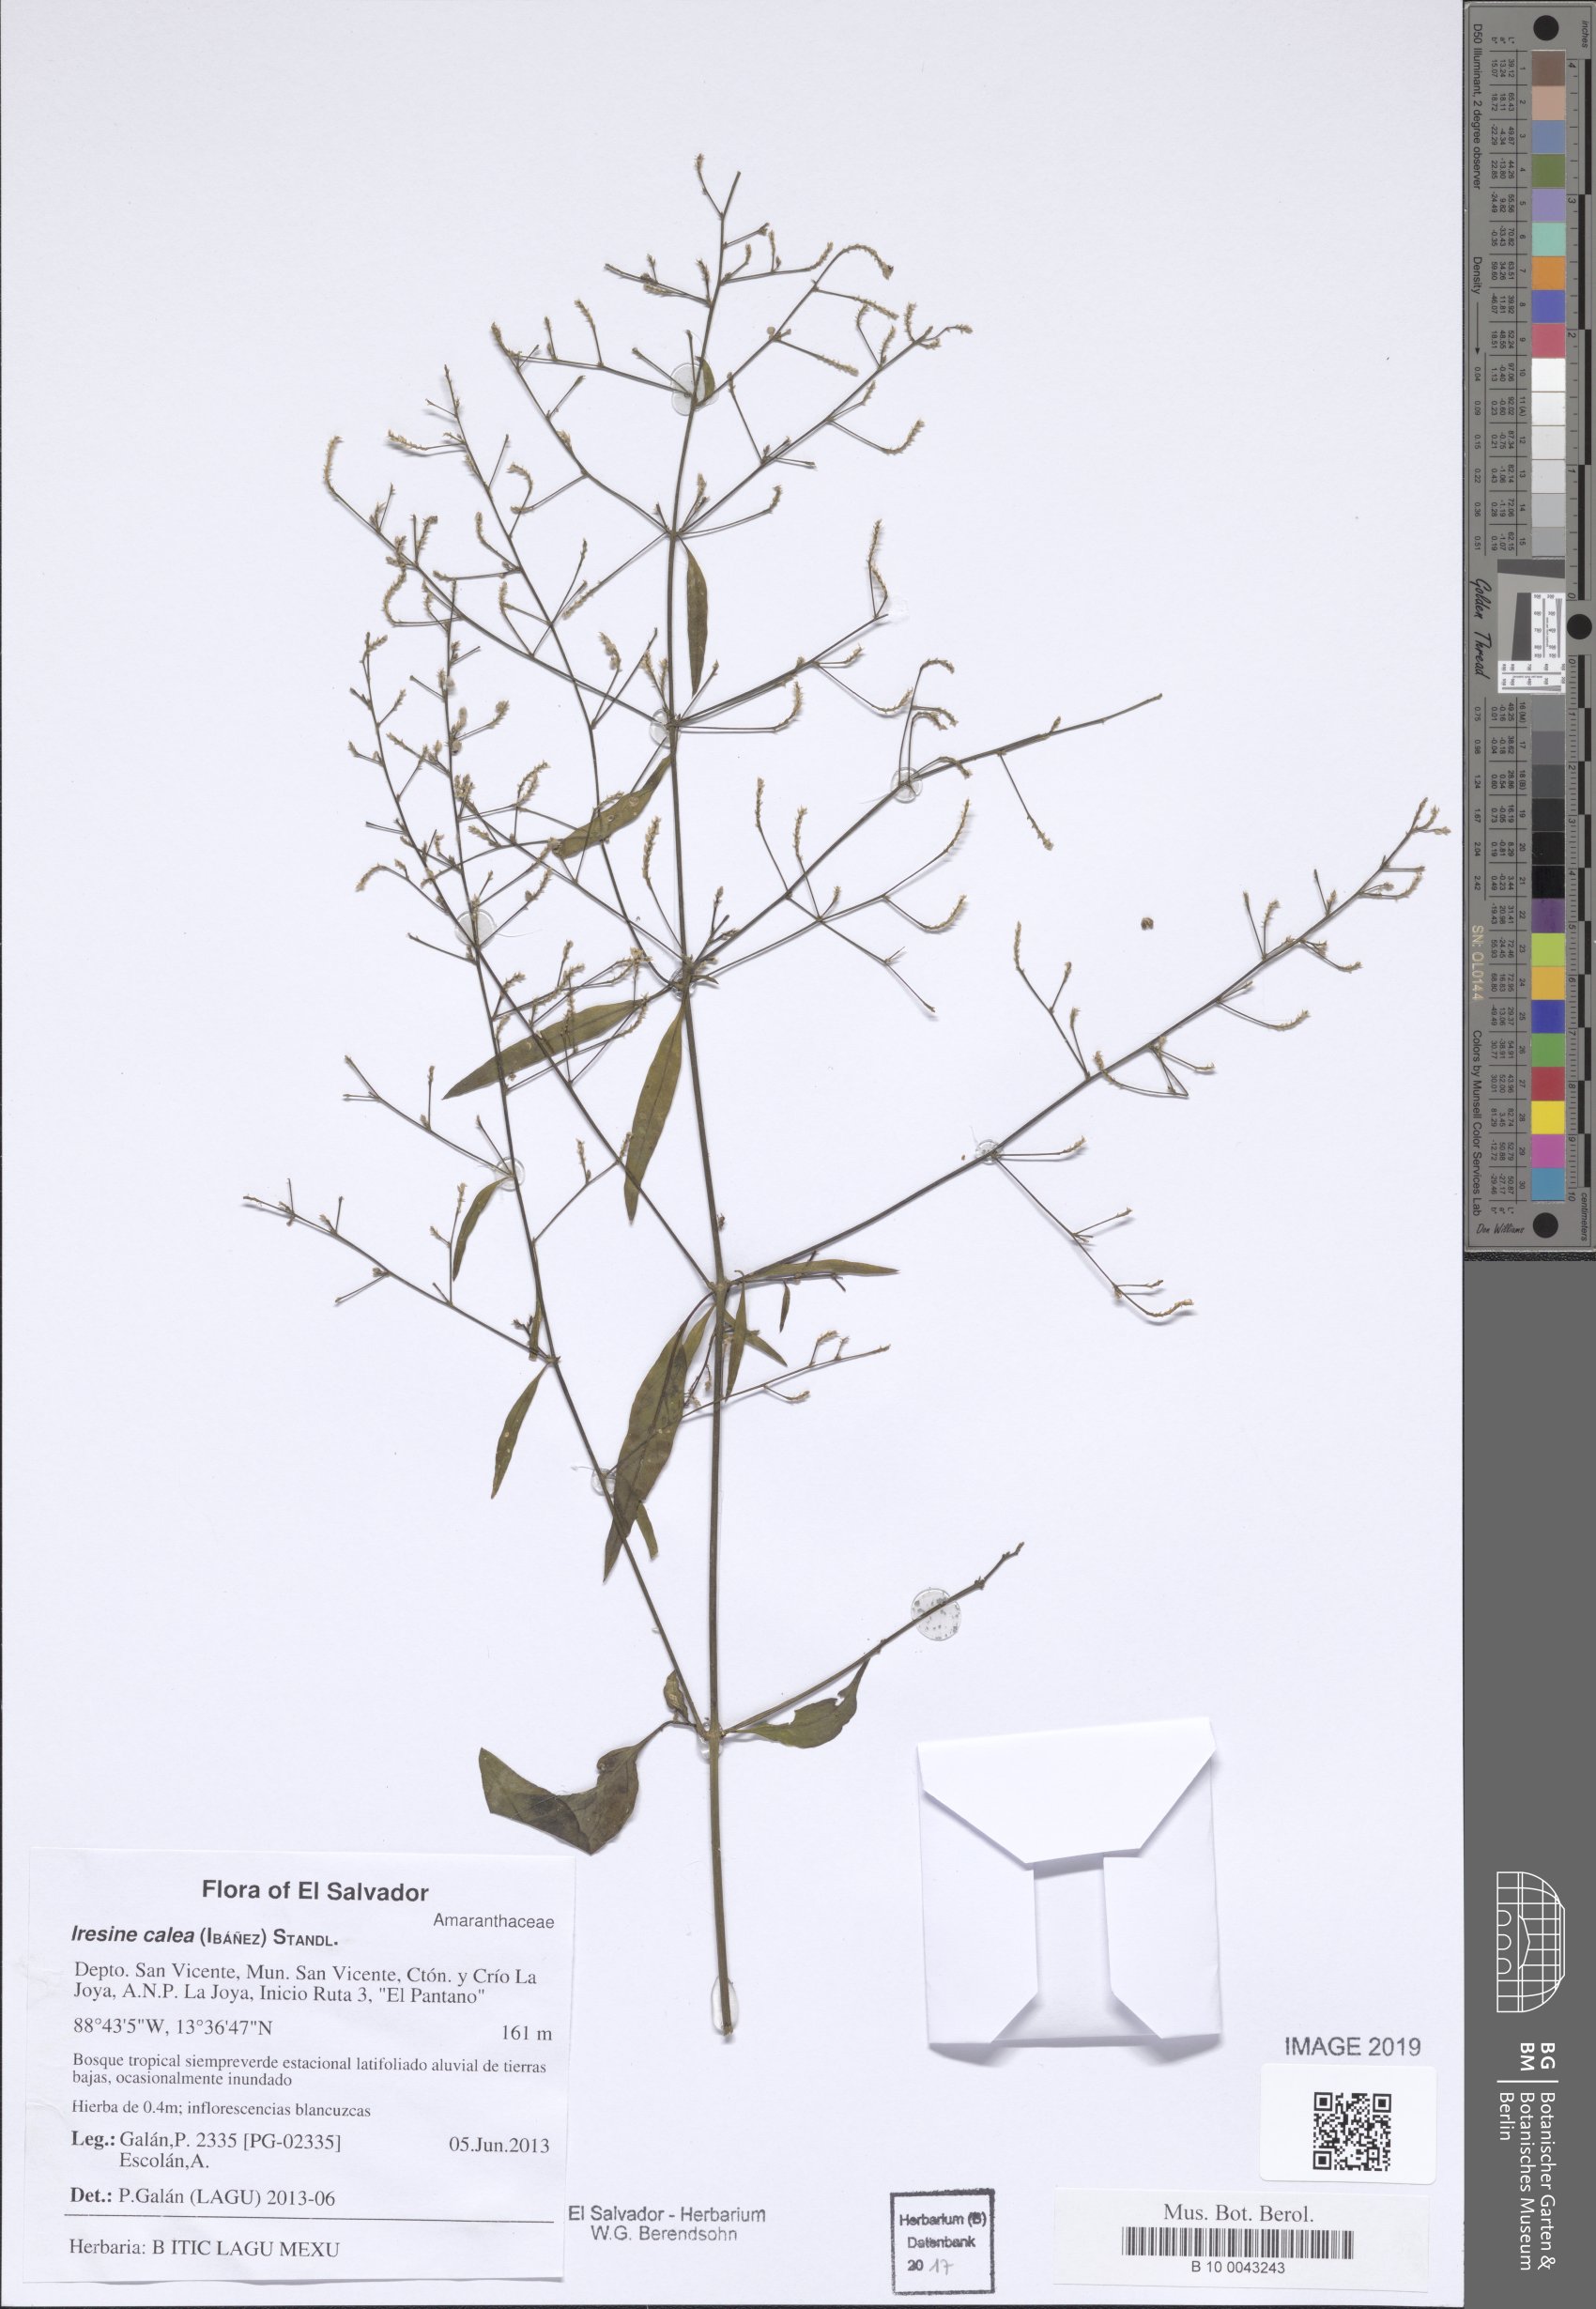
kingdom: Plantae
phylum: Tracheophyta
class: Magnoliopsida
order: Caryophyllales
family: Amaranthaceae
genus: Iresine
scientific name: Iresine angustifolia
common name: White snowplant
